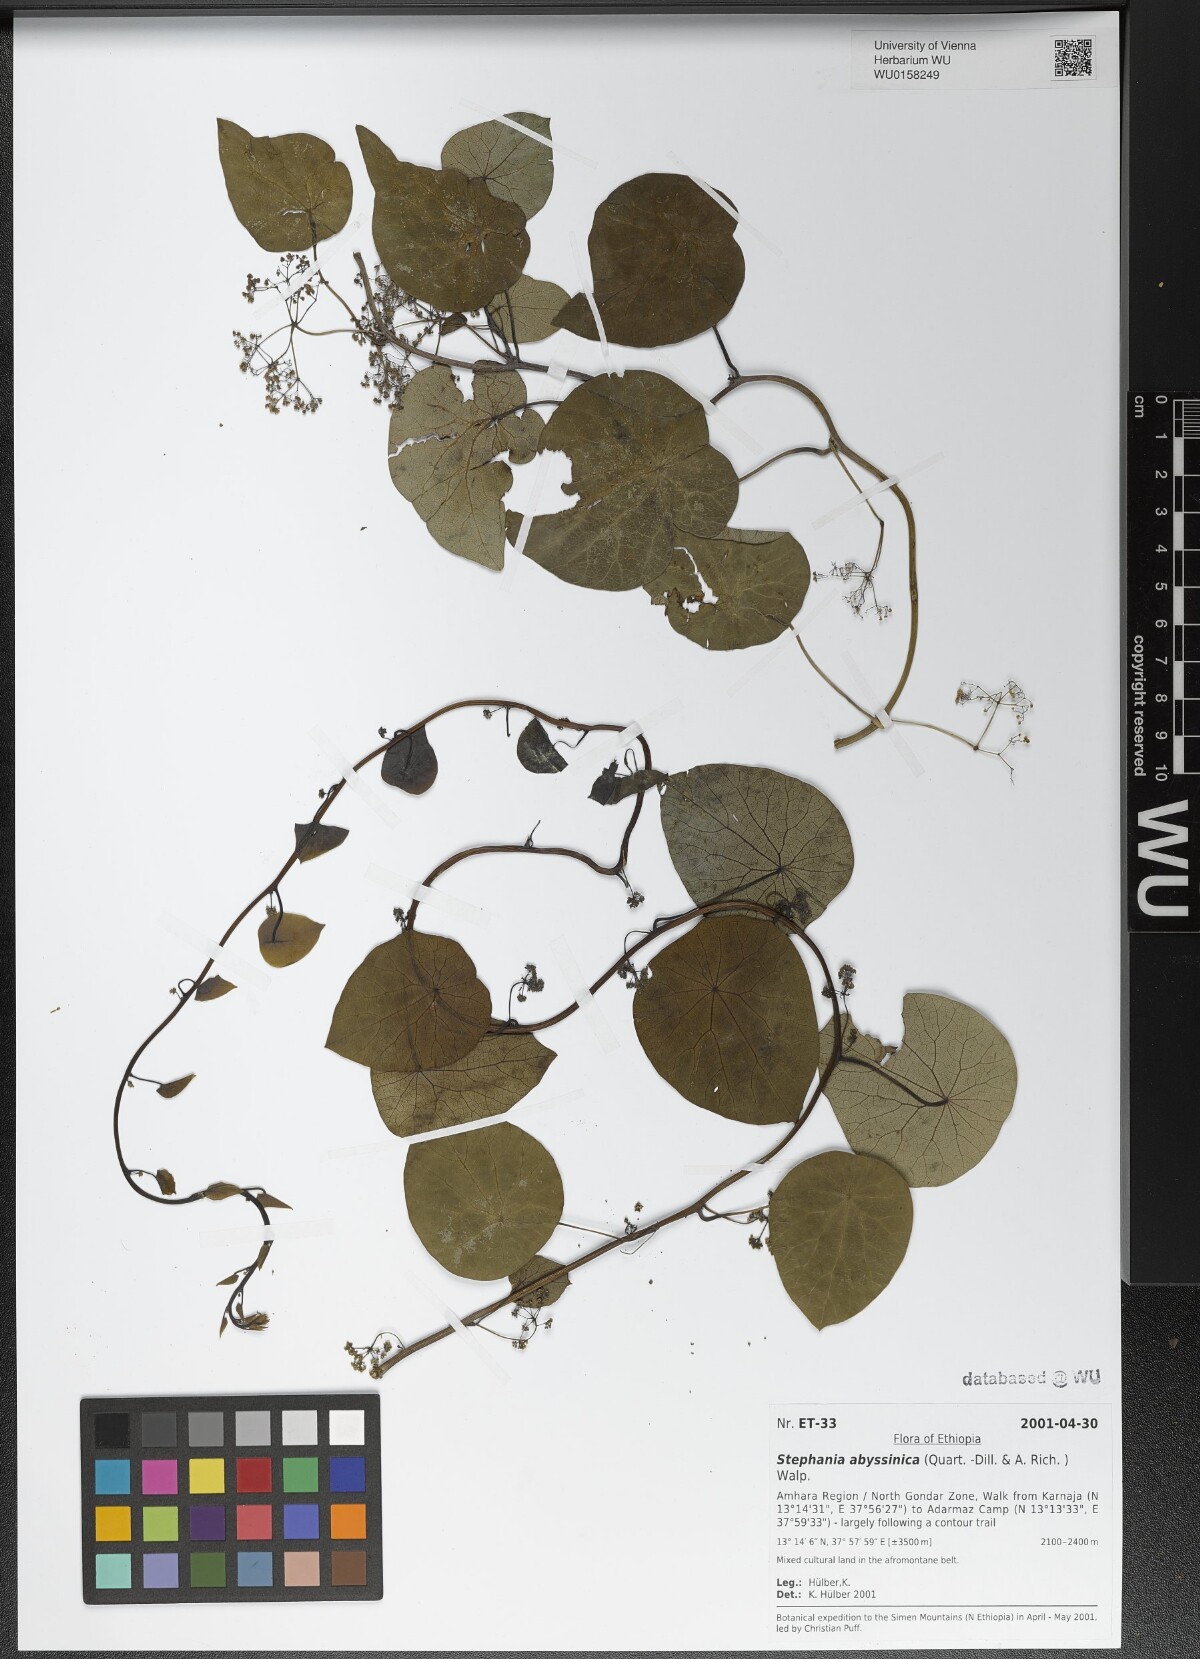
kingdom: Plantae
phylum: Tracheophyta
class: Magnoliopsida
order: Ranunculales
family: Menispermaceae
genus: Stephania
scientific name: Stephania abyssinica
